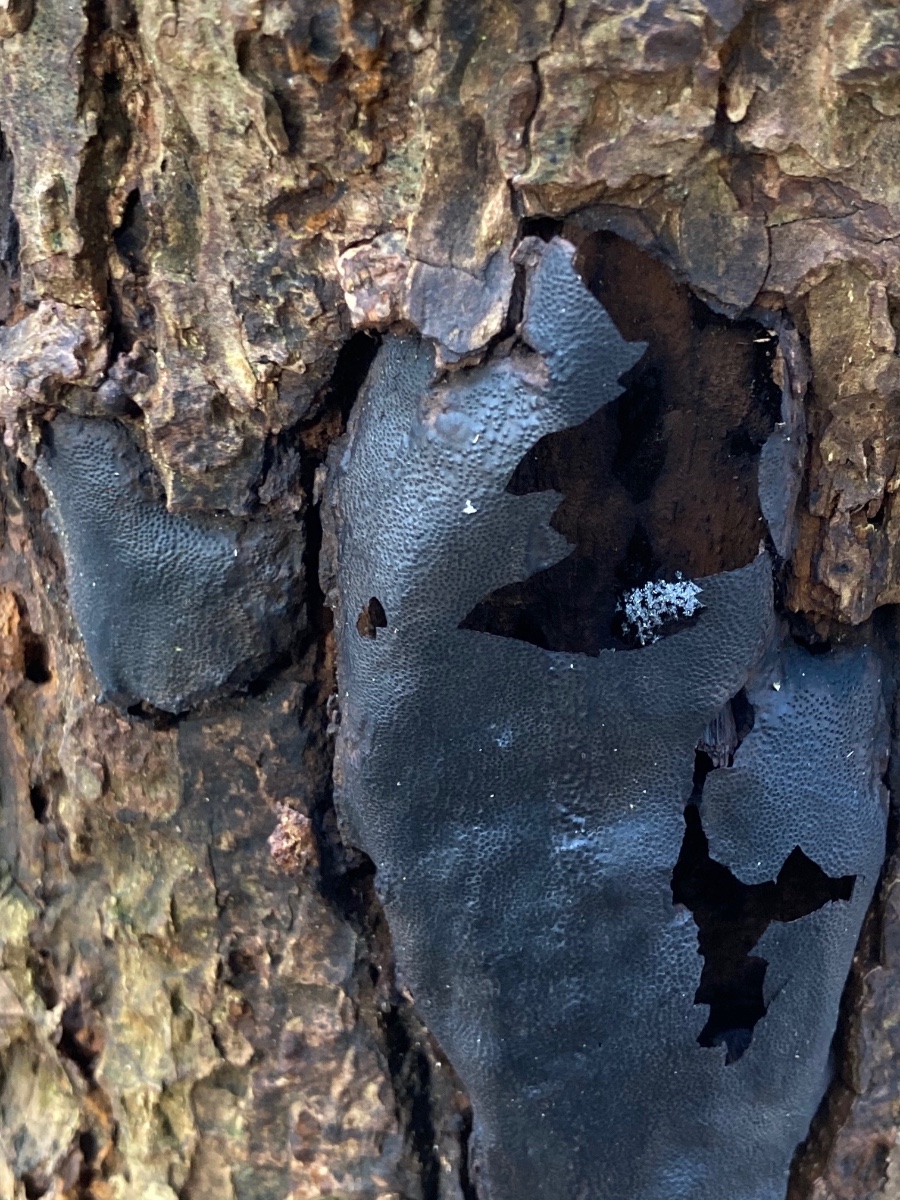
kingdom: Fungi
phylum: Ascomycota
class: Sordariomycetes
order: Boliniales
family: Boliniaceae
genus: Camarops
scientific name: Camarops polysperma
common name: elle-kulsnegl
